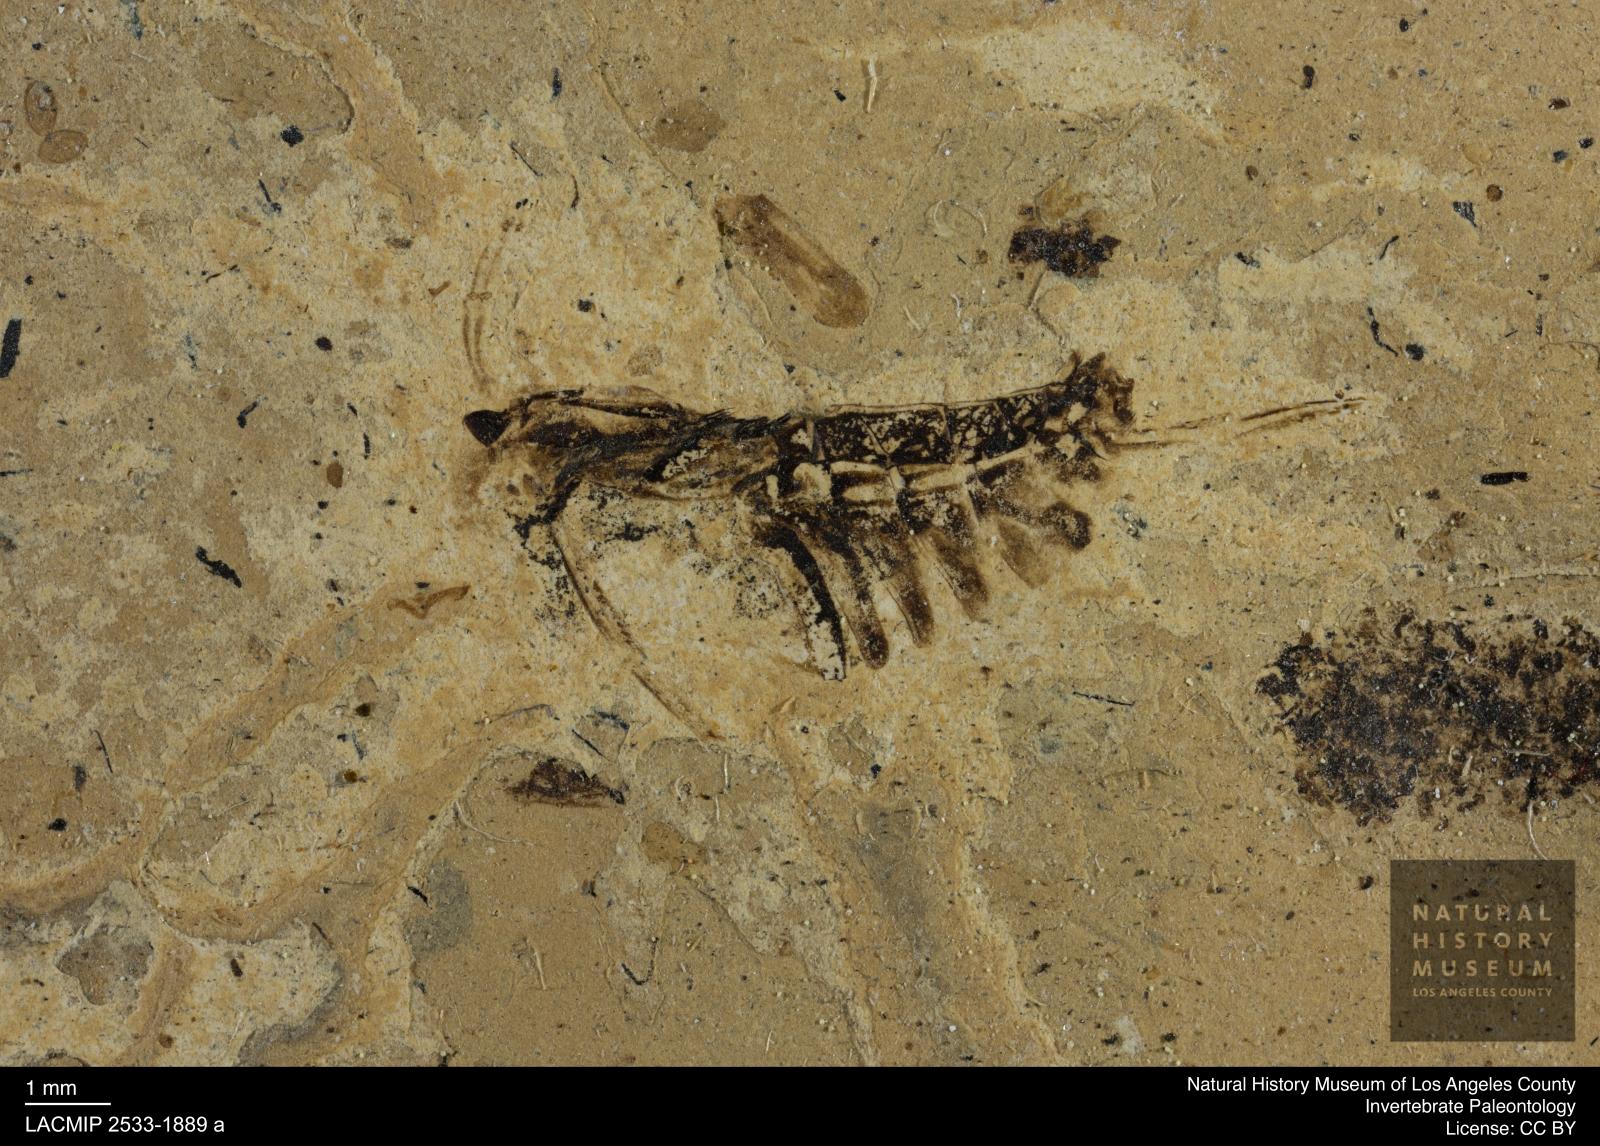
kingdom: Animalia
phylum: Arthropoda
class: Insecta
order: Hemiptera
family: Notonectidae
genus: Anisops
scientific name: Anisops Notonecta deichmuelleri
